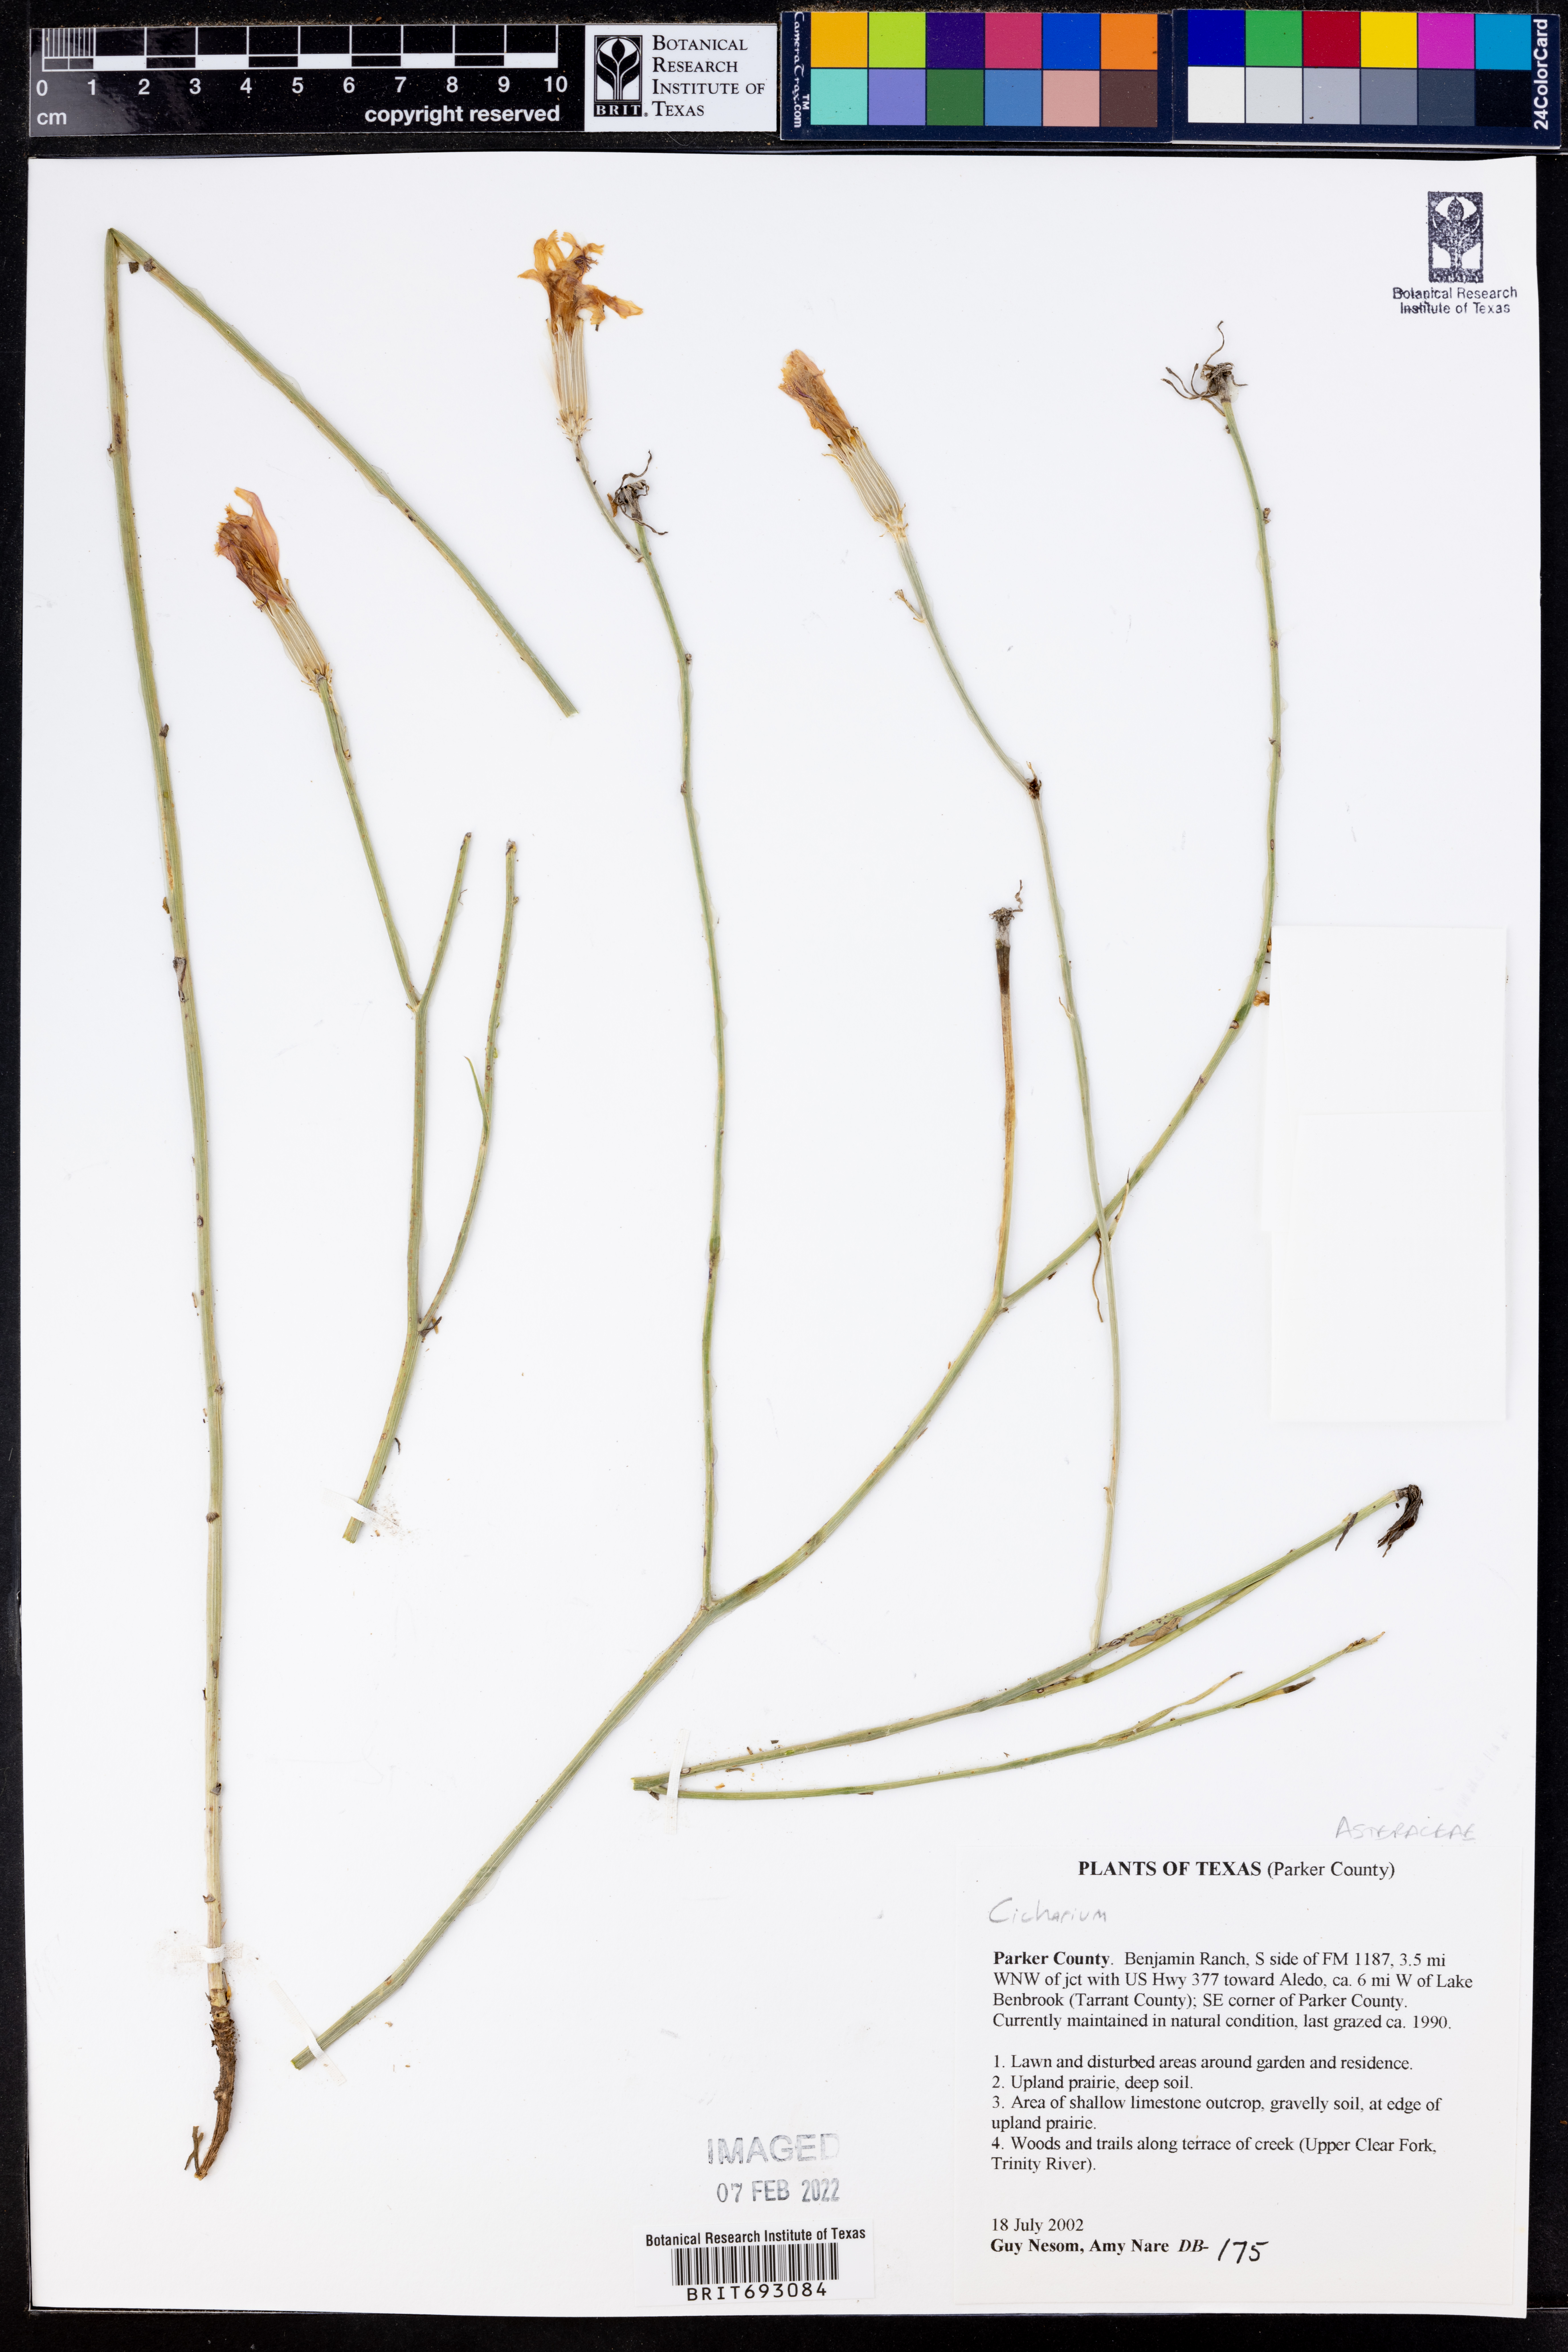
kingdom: Plantae
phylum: Tracheophyta
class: Magnoliopsida
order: Asterales
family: Asteraceae
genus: Cichorium
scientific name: Cichorium
